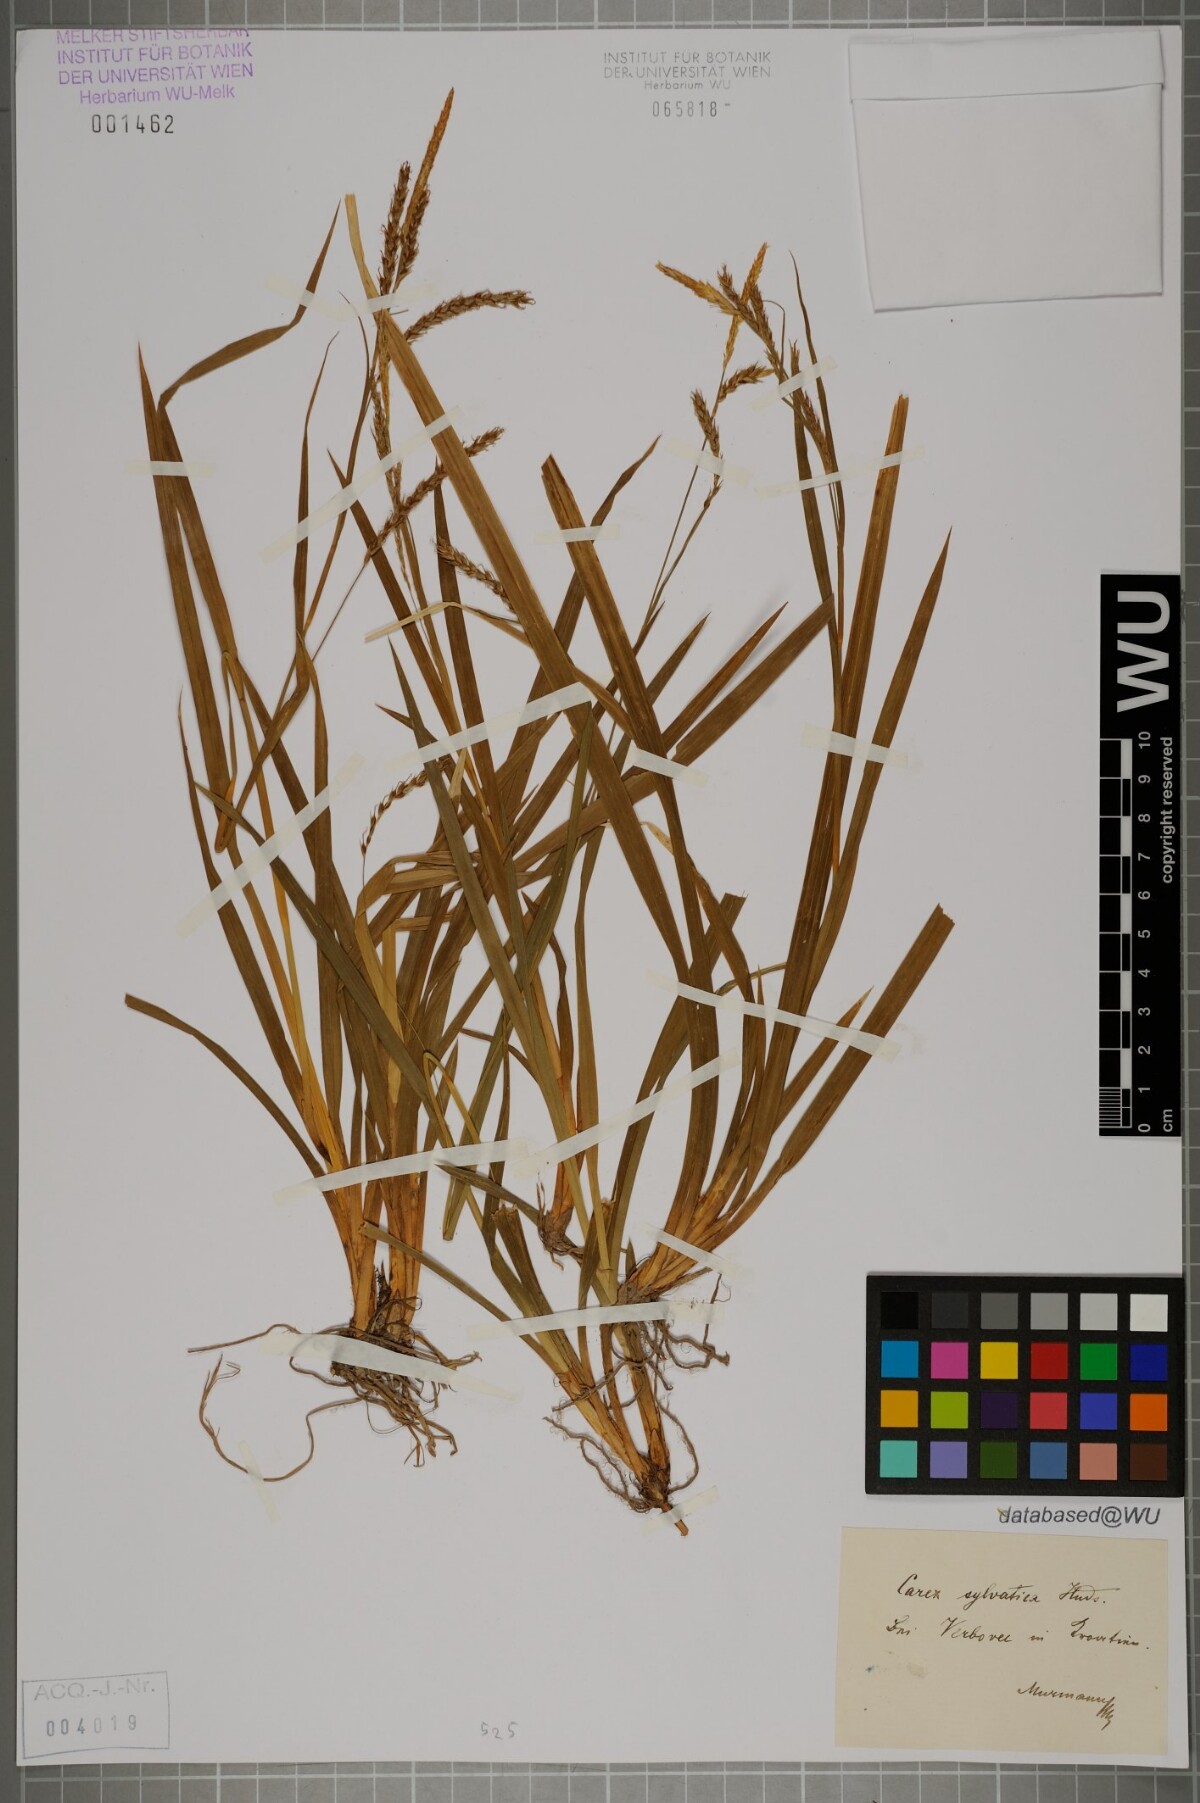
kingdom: Plantae
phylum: Tracheophyta
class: Liliopsida
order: Poales
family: Cyperaceae
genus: Carex
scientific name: Carex sylvatica
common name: Wood-sedge
